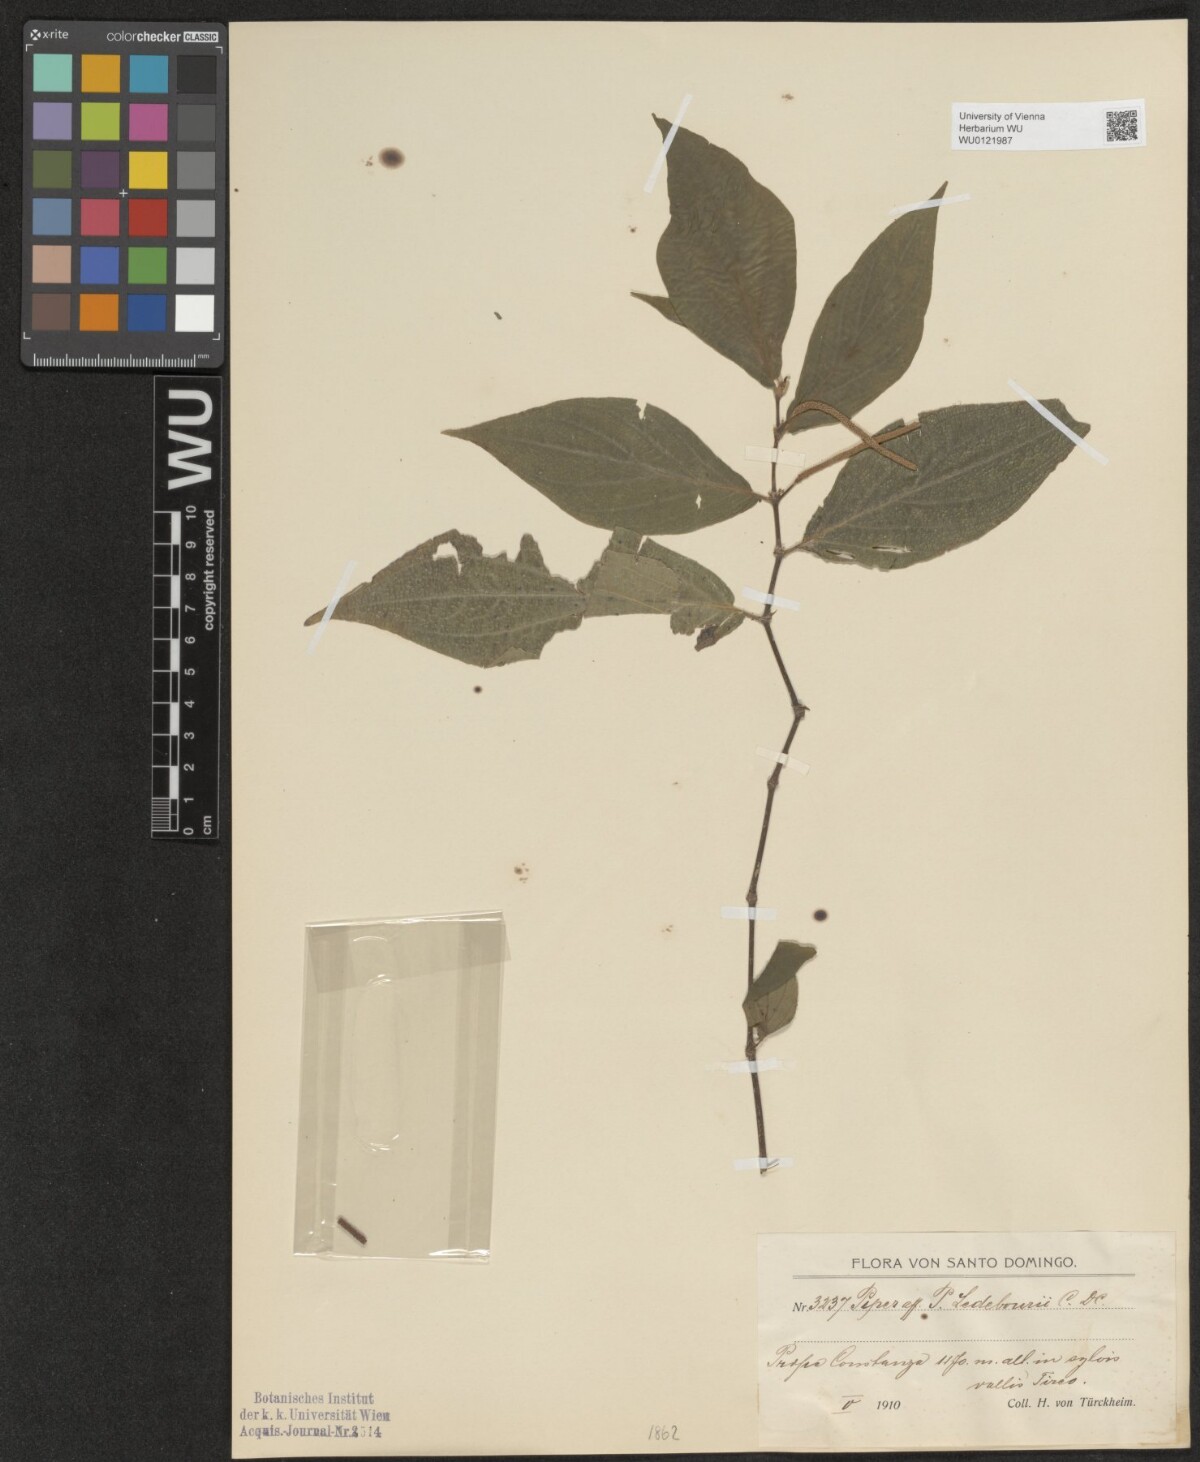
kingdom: Plantae
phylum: Tracheophyta
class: Magnoliopsida
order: Piperales
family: Piperaceae
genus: Piper
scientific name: Piper secundum
